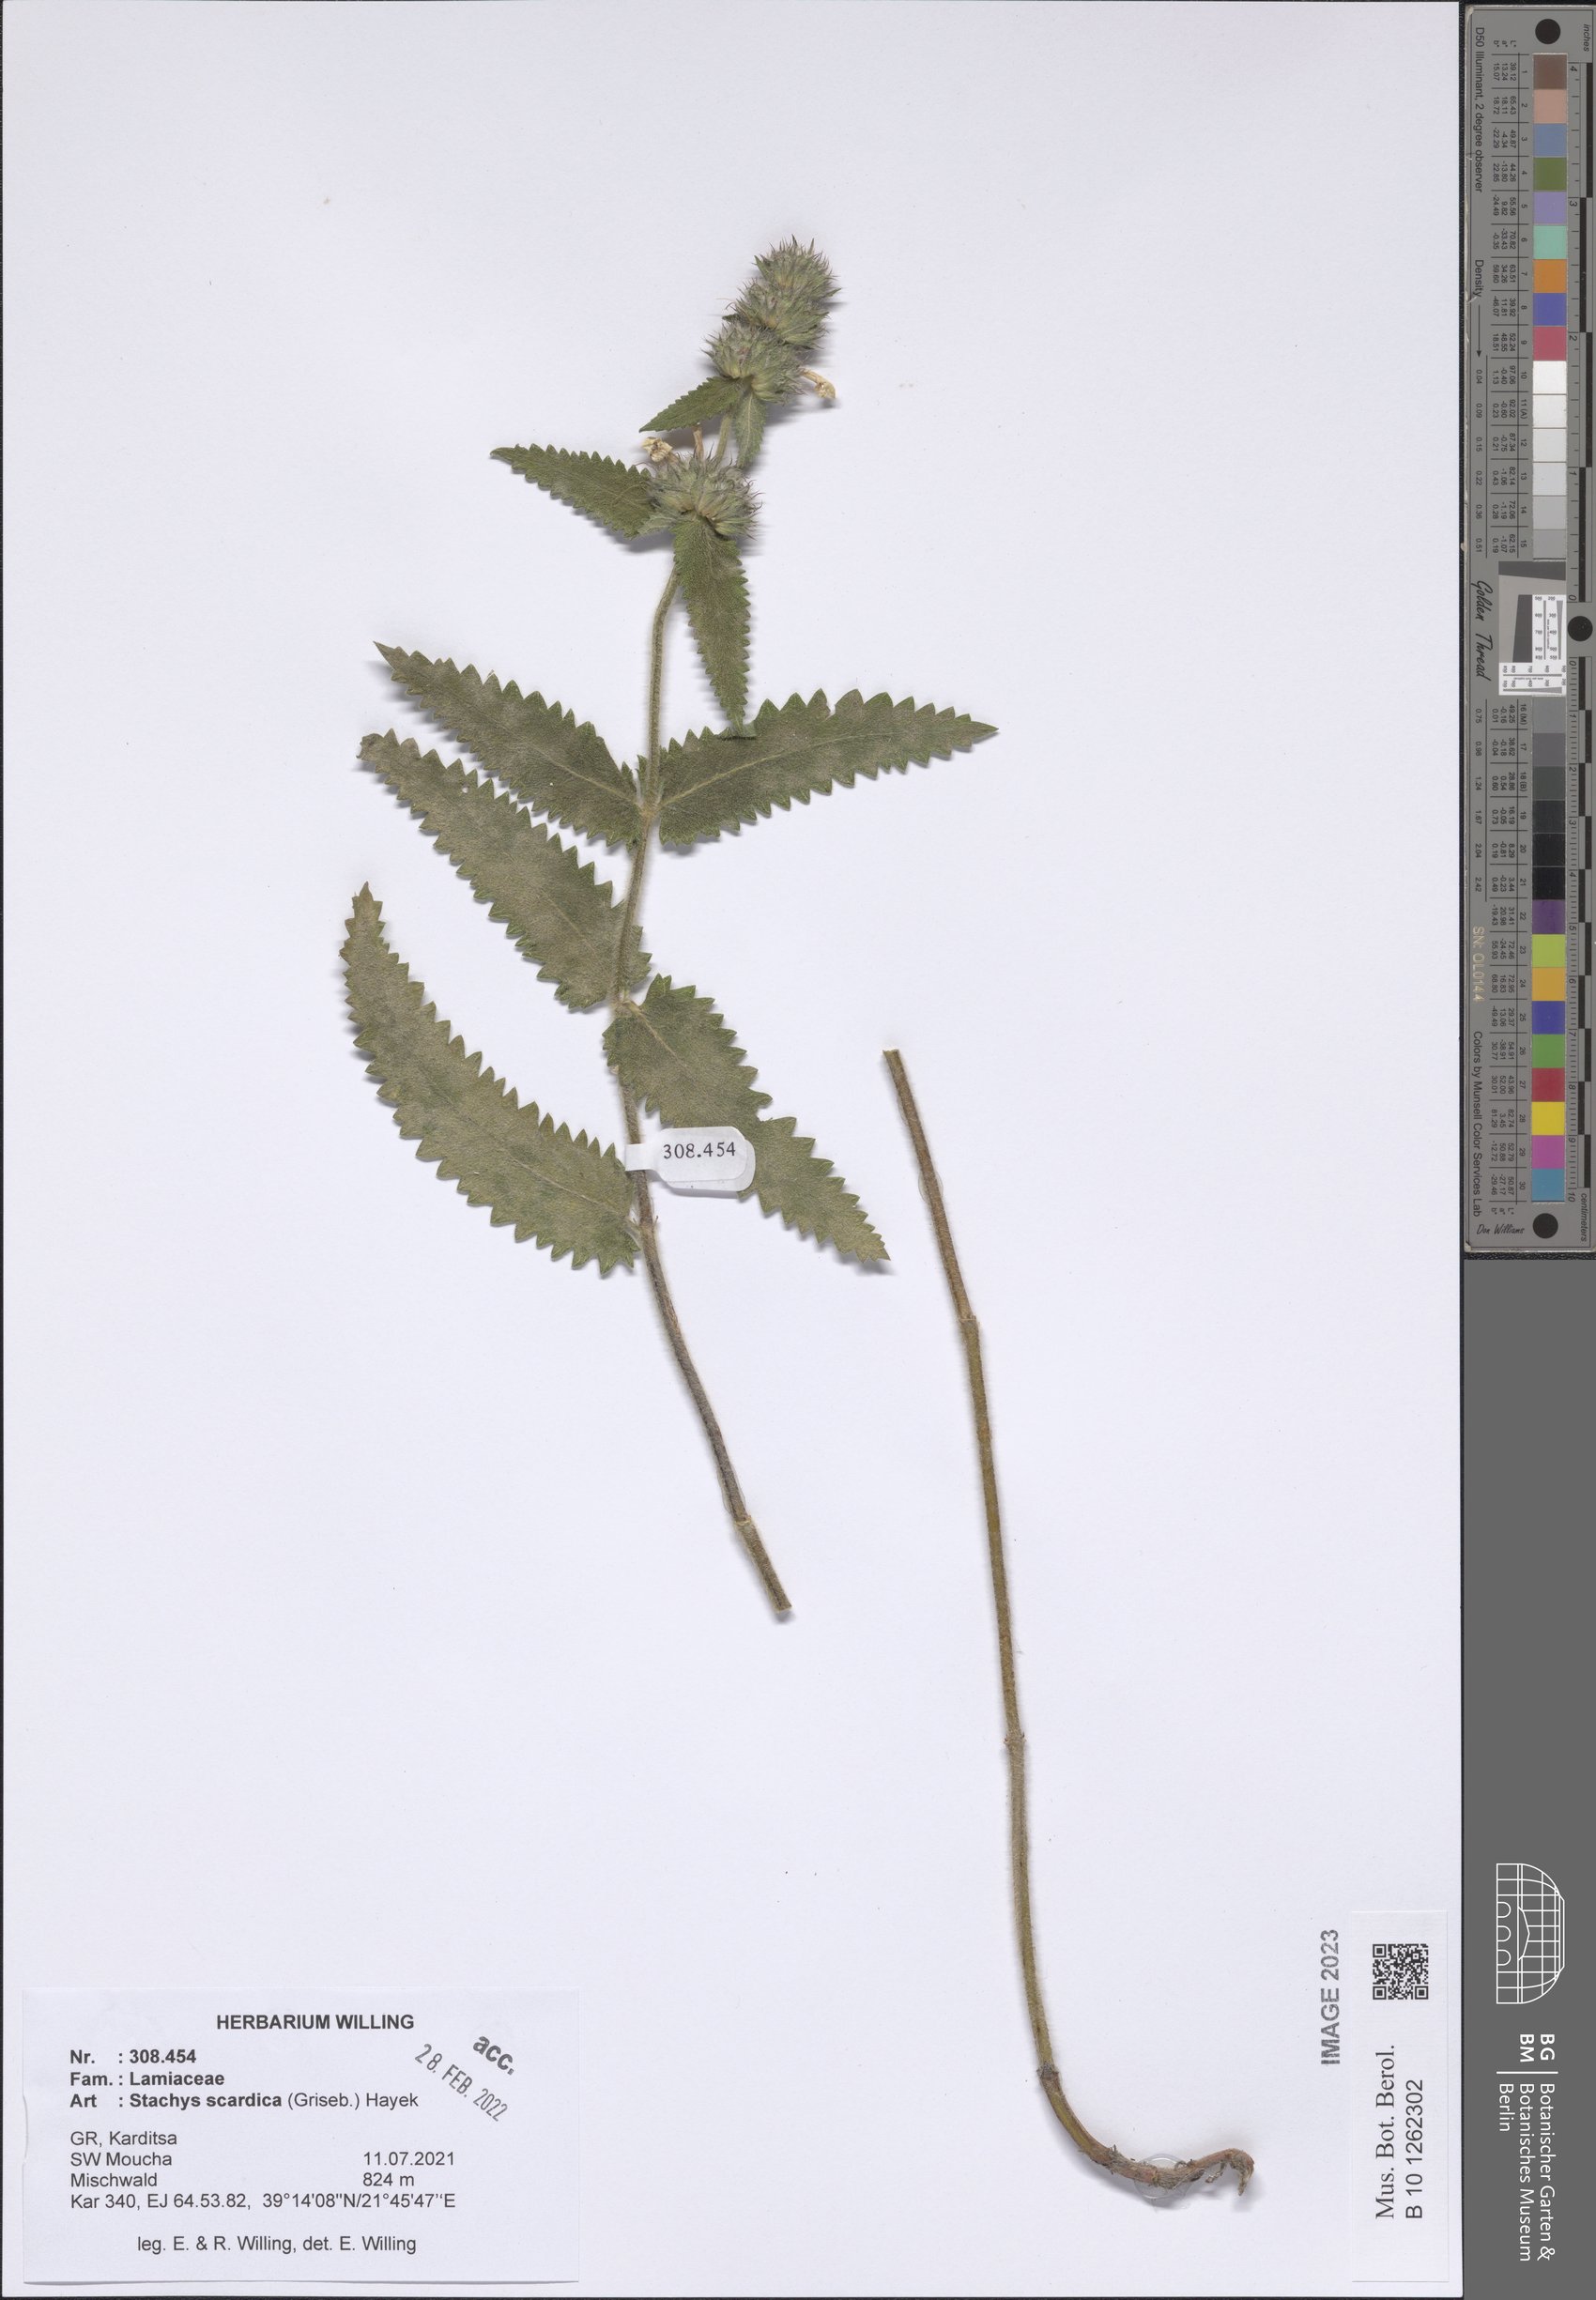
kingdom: Plantae
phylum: Tracheophyta
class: Magnoliopsida
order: Lamiales
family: Lamiaceae
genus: Betonica
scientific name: Betonica scardica
